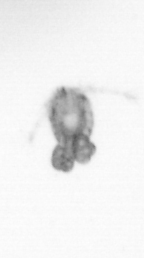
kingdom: Animalia
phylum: Arthropoda
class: Copepoda
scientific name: Copepoda
